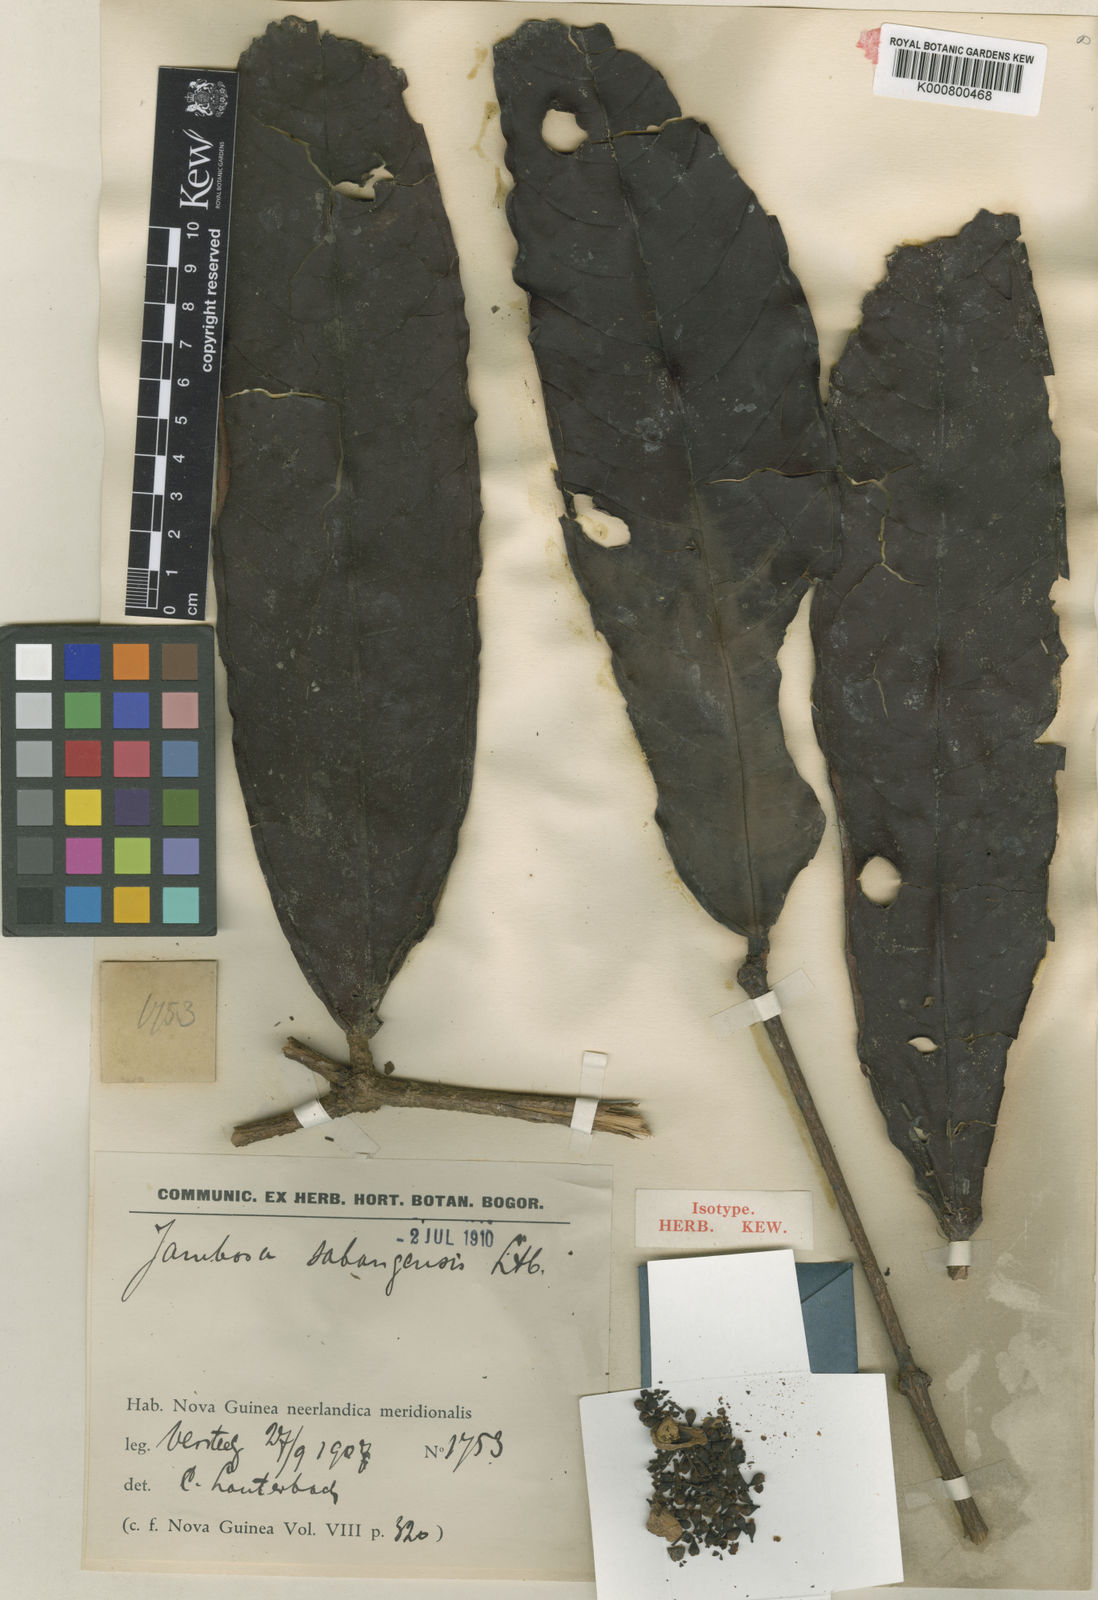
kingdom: Plantae
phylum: Tracheophyta
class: Magnoliopsida
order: Myrtales
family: Myrtaceae
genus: Syzygium
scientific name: Syzygium sabangense
